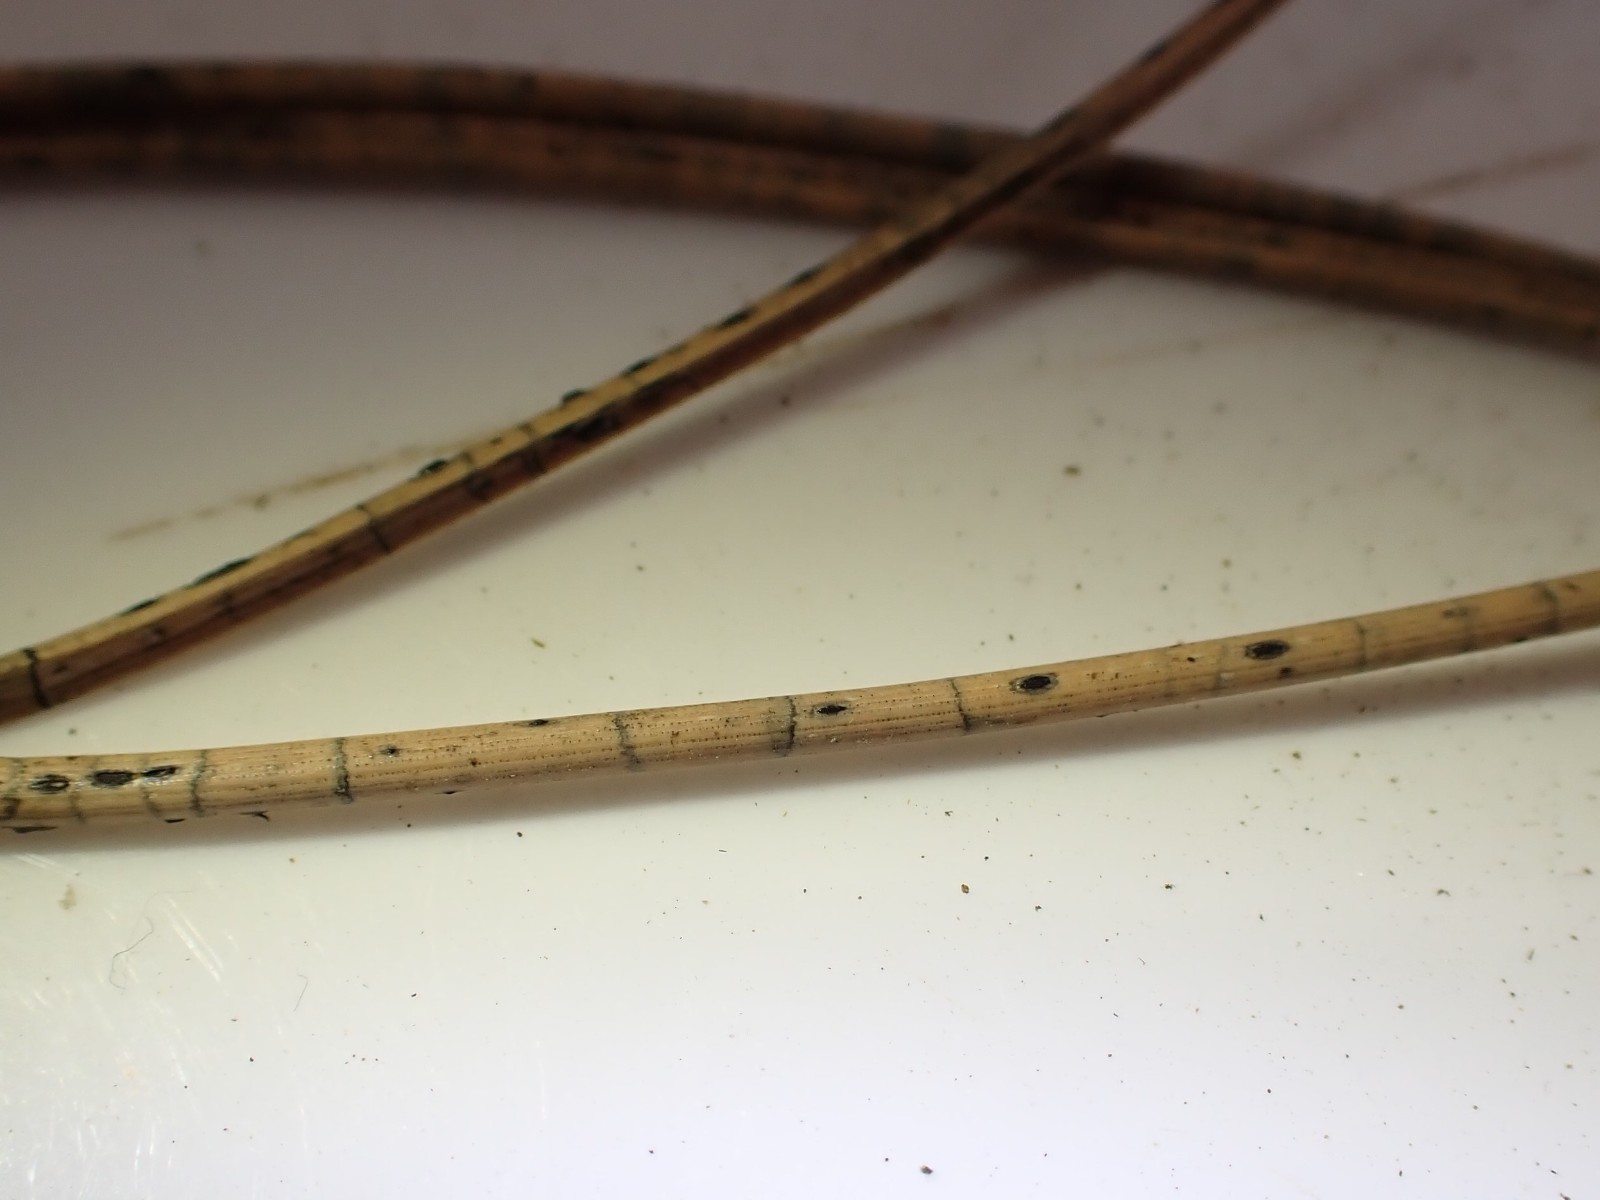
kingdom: Fungi
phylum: Ascomycota
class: Leotiomycetes
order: Rhytismatales
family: Rhytismataceae
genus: Lophodermium
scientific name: Lophodermium pinastri
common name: fyrre-fureplet
